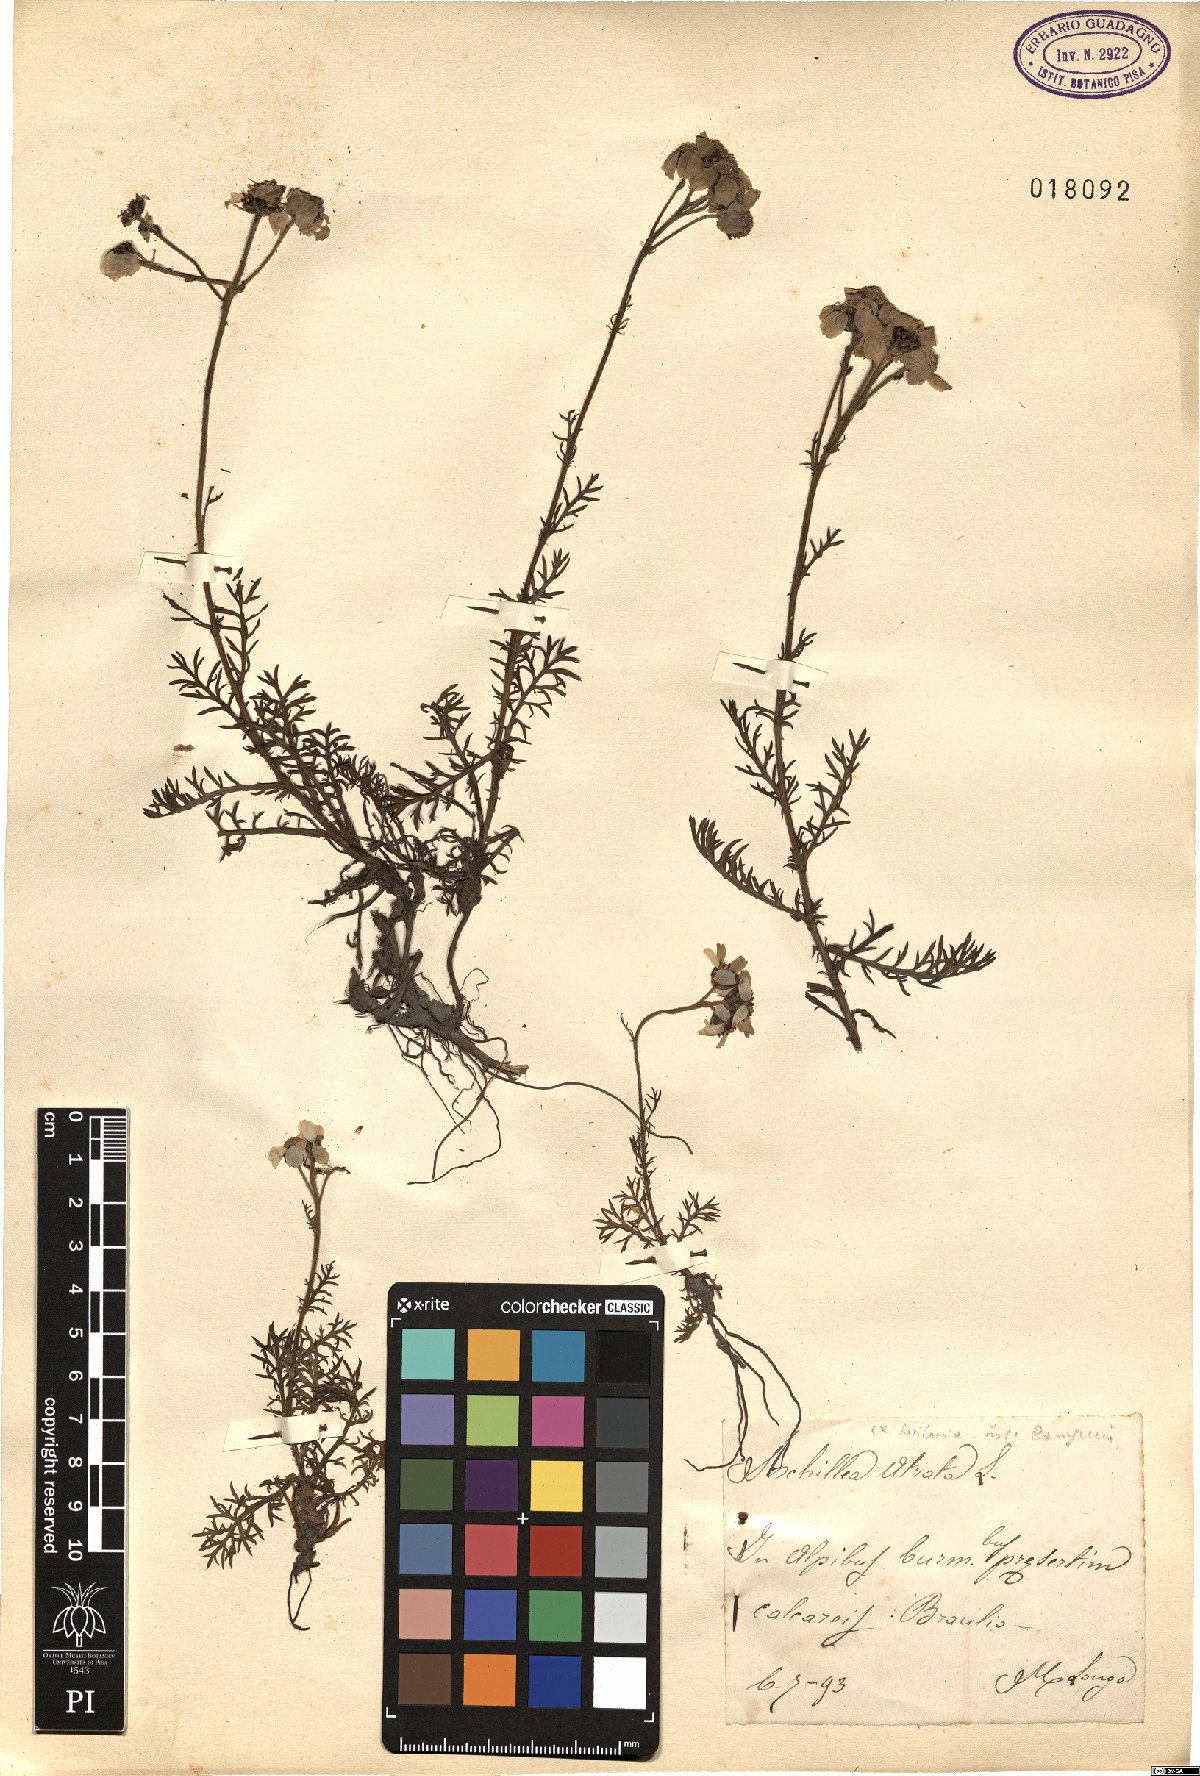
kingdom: Plantae
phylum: Tracheophyta
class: Magnoliopsida
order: Asterales
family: Asteraceae
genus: Achillea
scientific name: Achillea atrata
